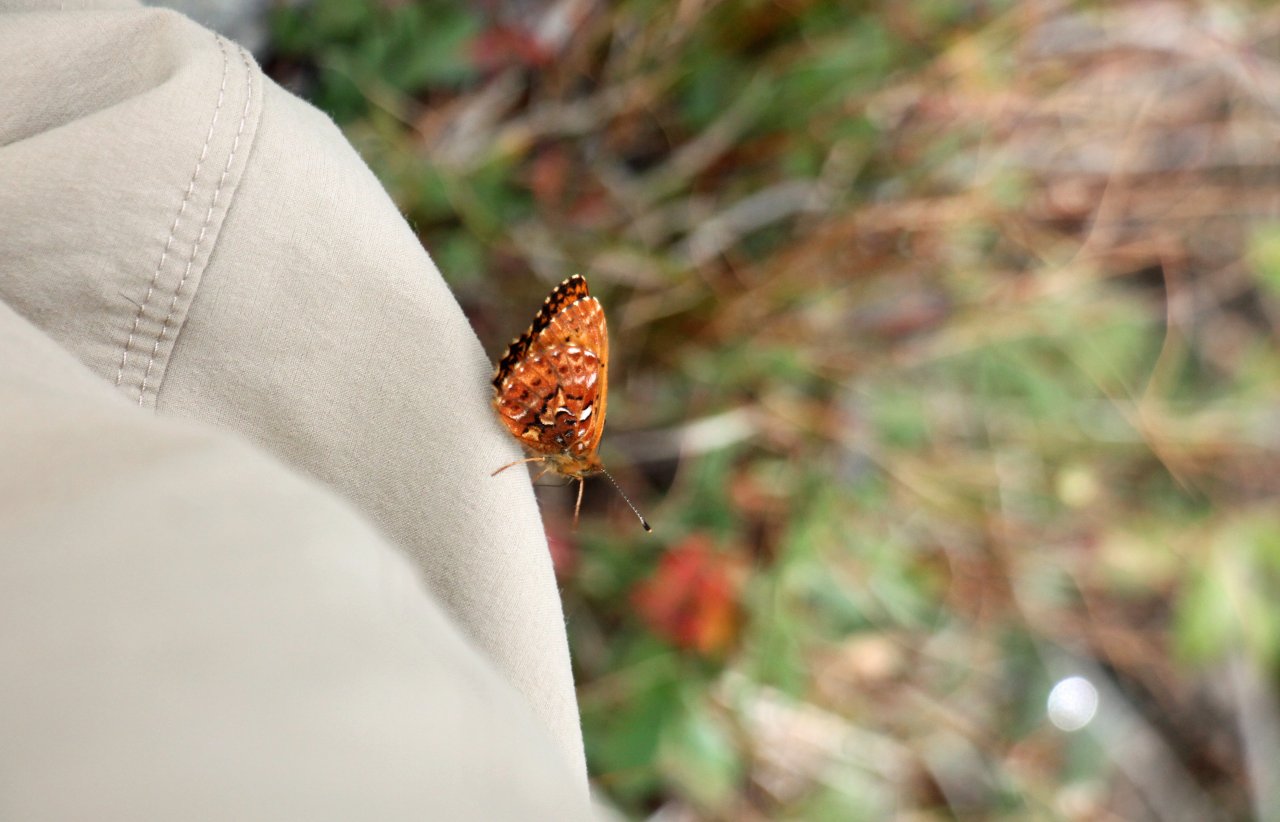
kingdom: Animalia
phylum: Arthropoda
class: Insecta
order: Lepidoptera
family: Nymphalidae
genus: Boloria
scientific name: Boloria chariclea
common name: Arctic Fritillary
